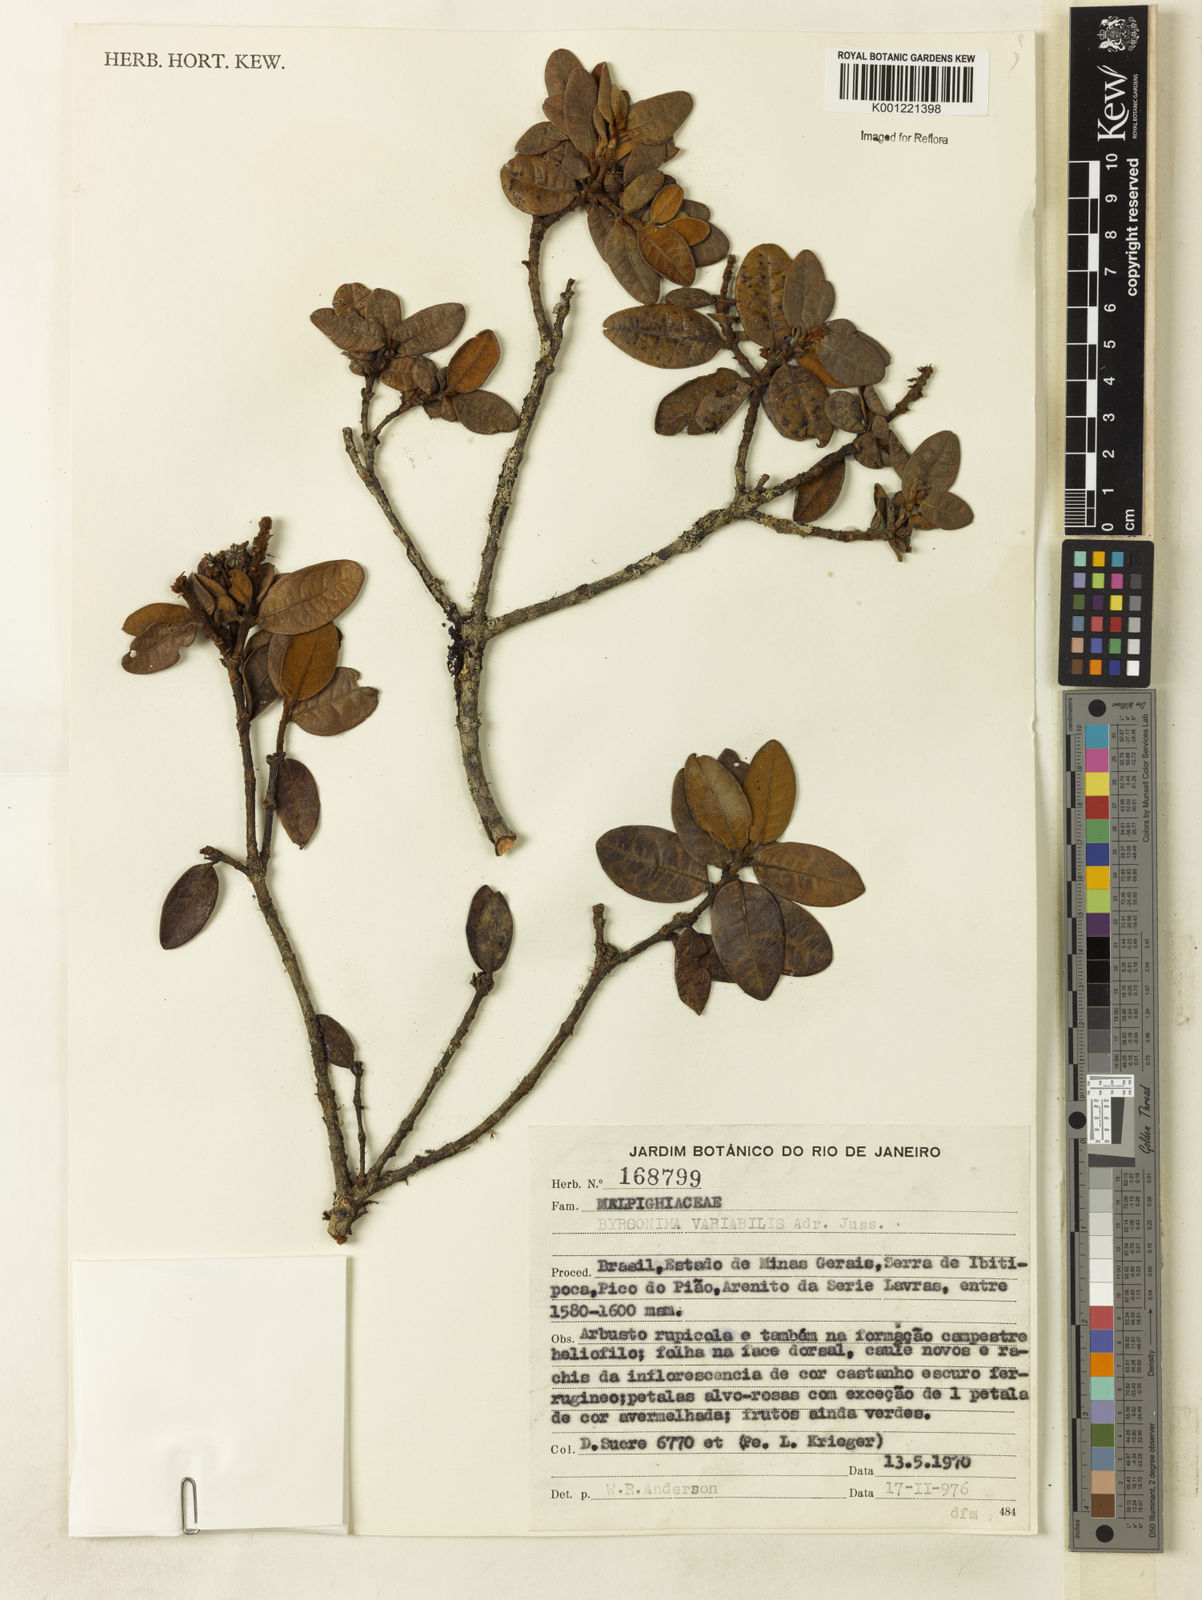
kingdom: Plantae
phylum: Tracheophyta
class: Magnoliopsida
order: Malpighiales
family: Malpighiaceae
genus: Byrsonima
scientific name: Byrsonima variabilis
